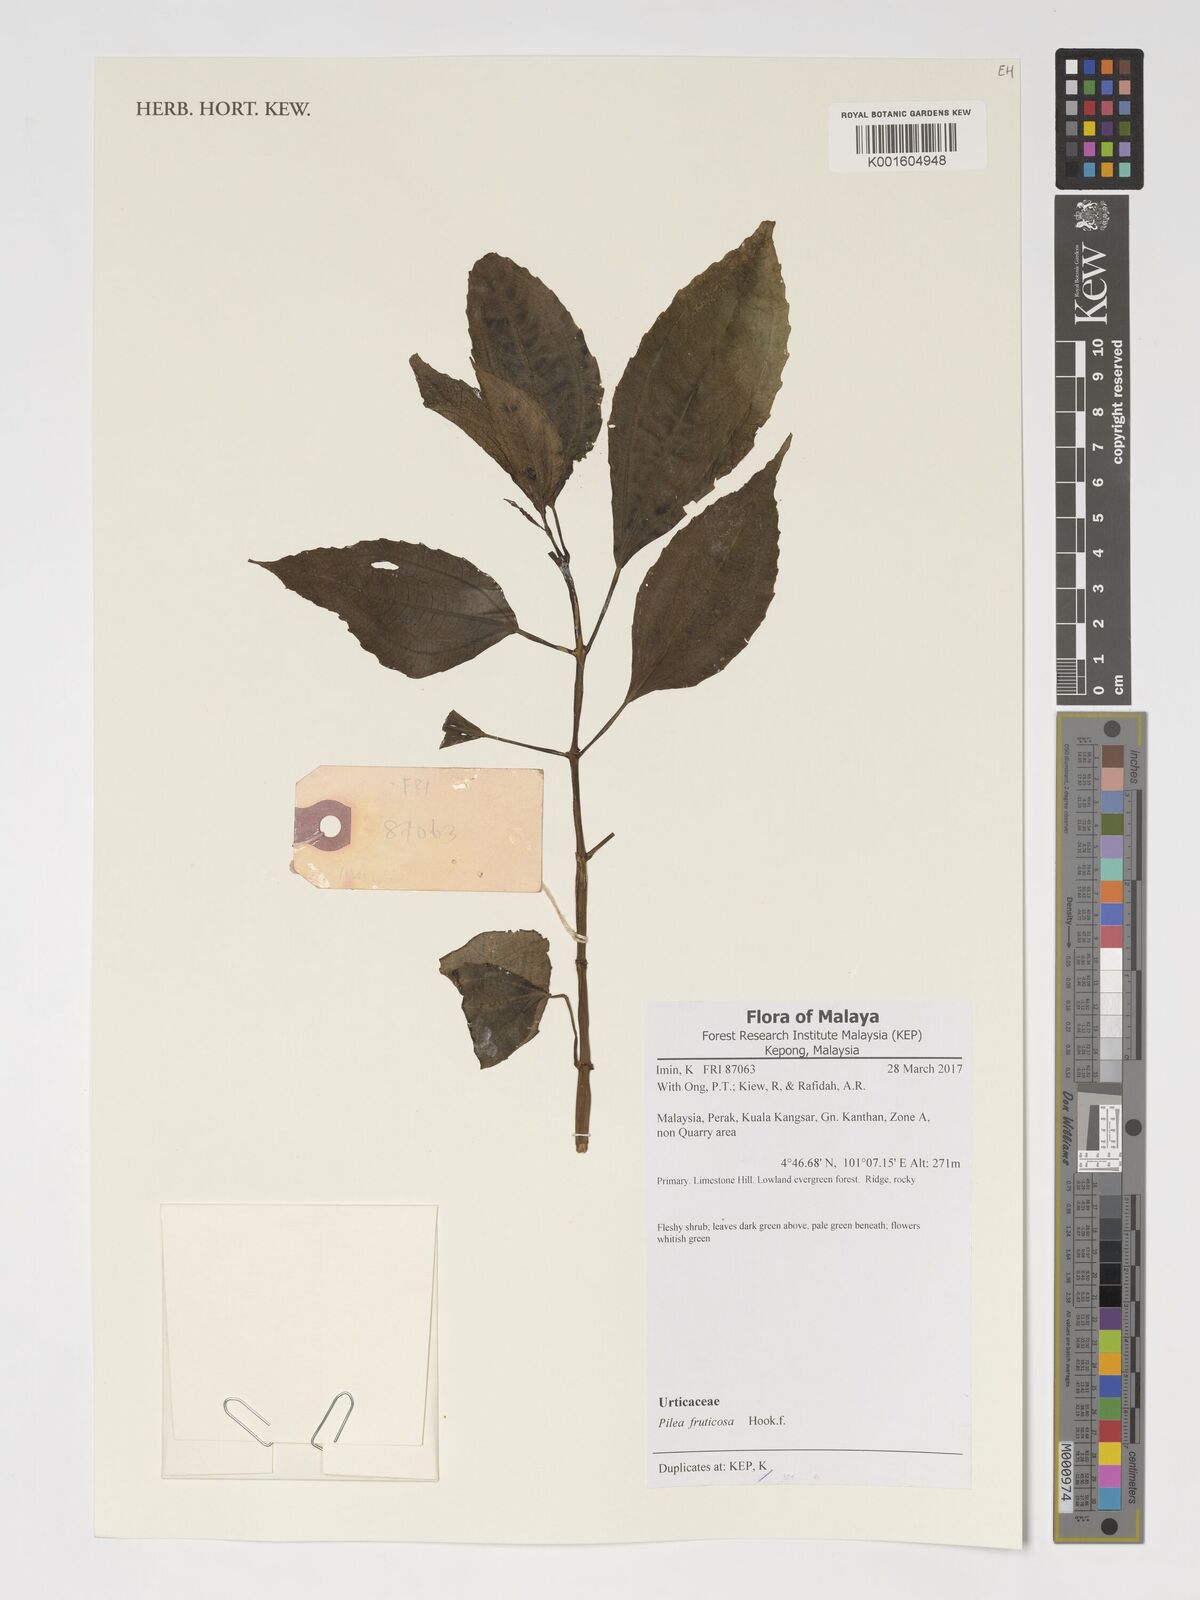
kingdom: Plantae
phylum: Tracheophyta
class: Magnoliopsida
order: Rosales
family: Urticaceae
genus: Pilea
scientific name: Pilea fruticosa
